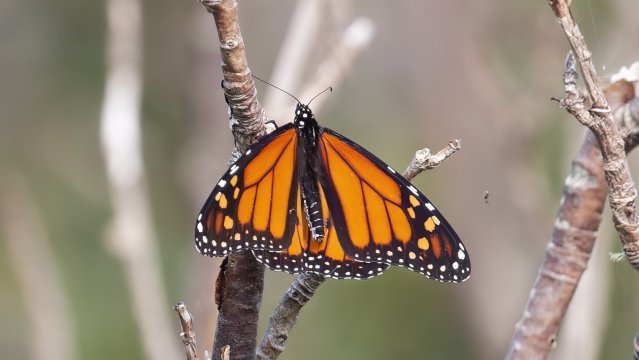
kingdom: Animalia
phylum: Arthropoda
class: Insecta
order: Lepidoptera
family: Nymphalidae
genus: Danaus
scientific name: Danaus plexippus
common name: Monarch
